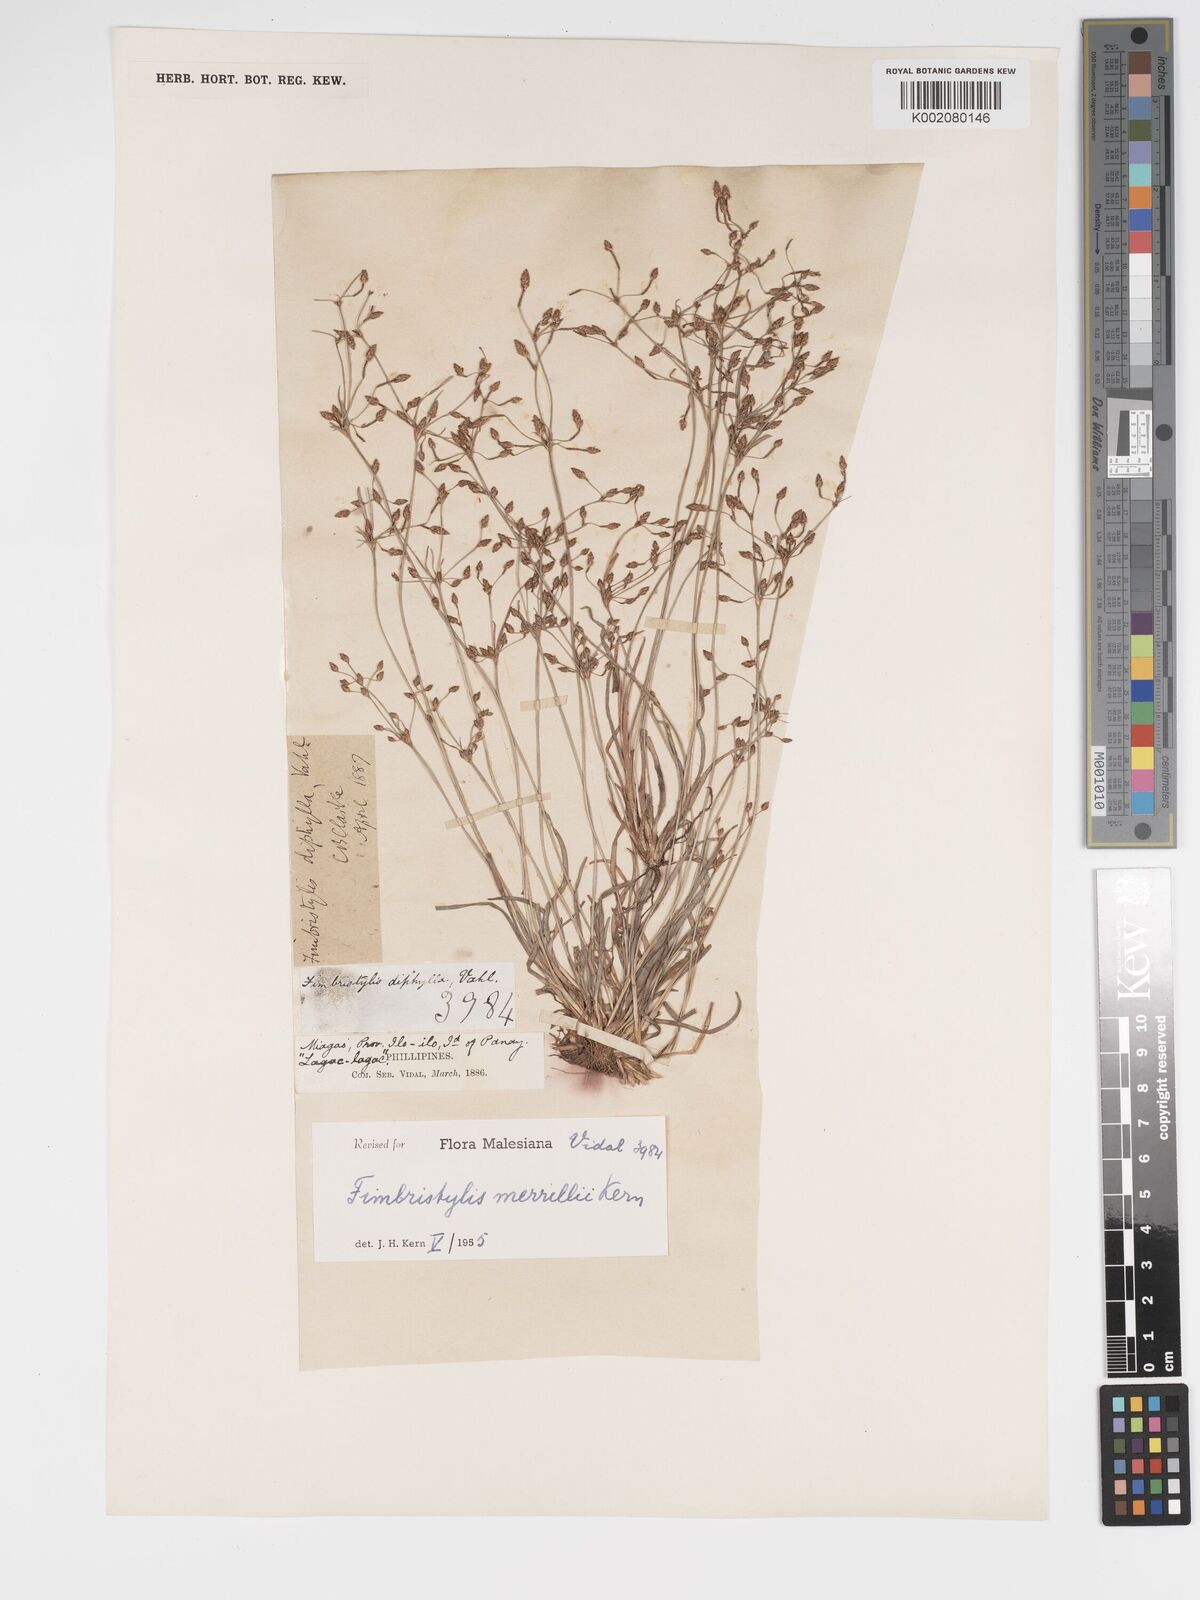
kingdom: Plantae
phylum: Tracheophyta
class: Liliopsida
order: Poales
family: Cyperaceae
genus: Fimbristylis
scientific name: Fimbristylis merrillii
